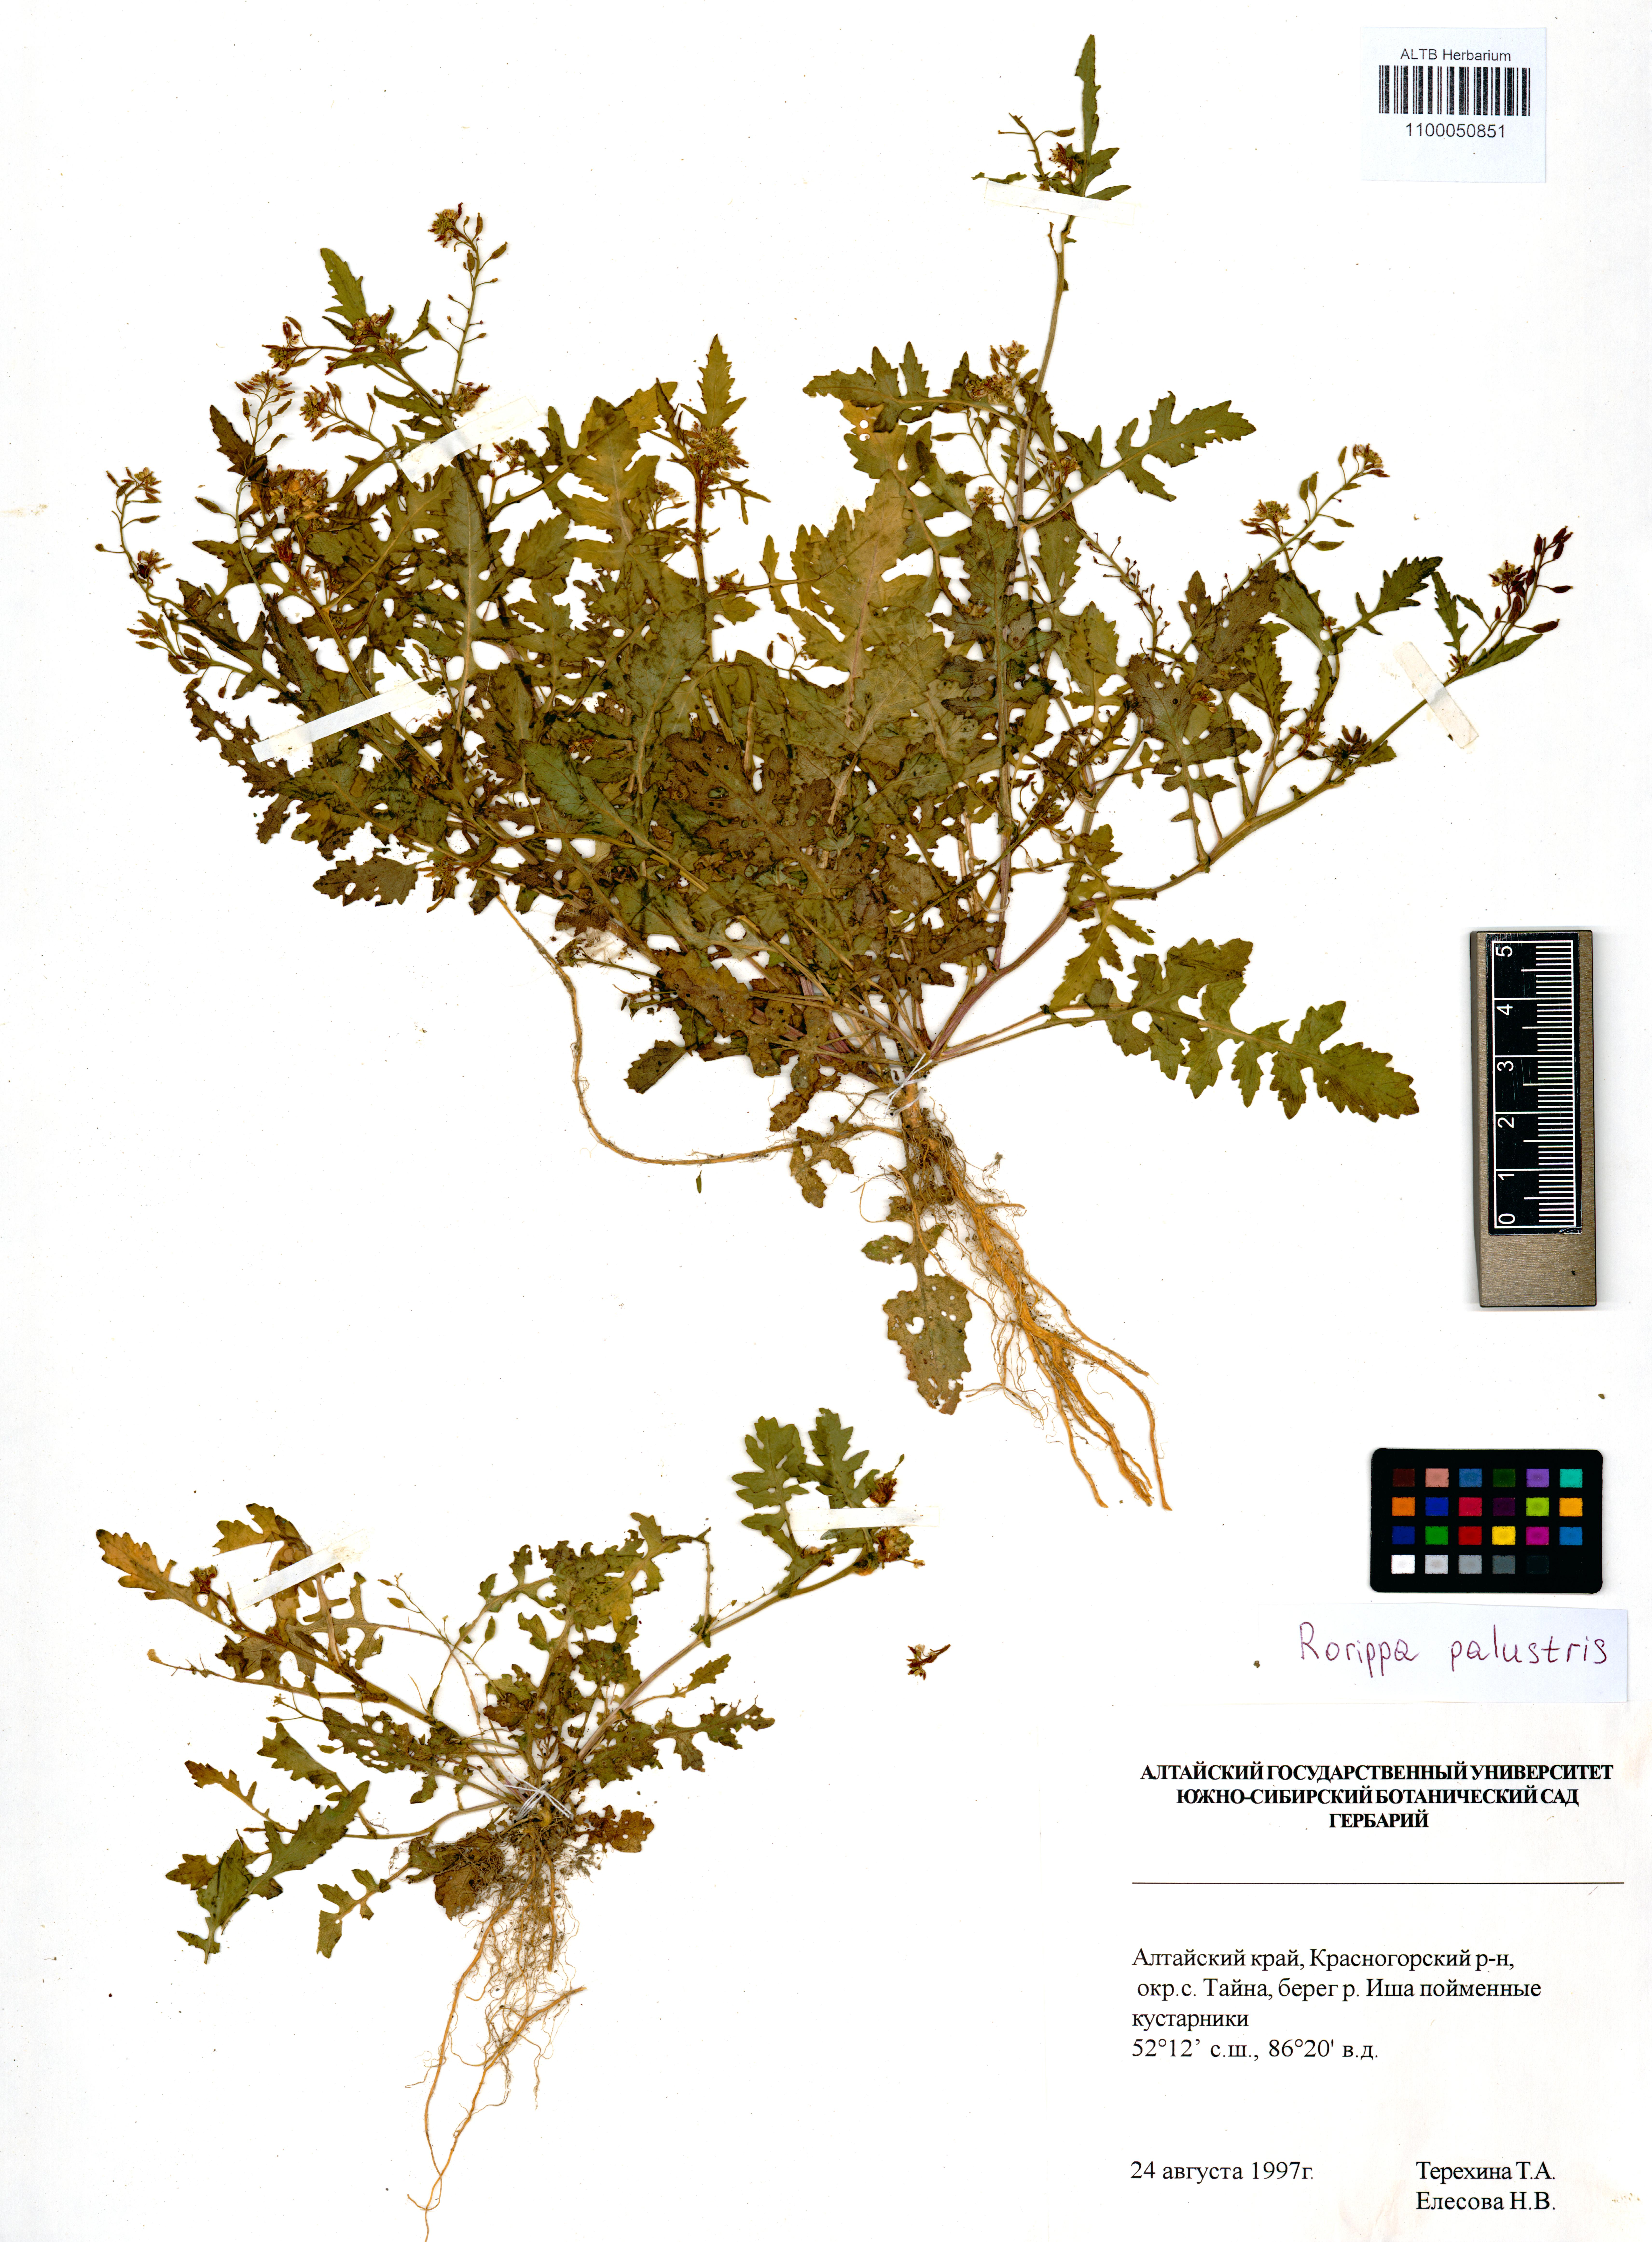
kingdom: Plantae
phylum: Tracheophyta
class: Magnoliopsida
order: Brassicales
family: Brassicaceae
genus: Rorippa
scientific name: Rorippa palustris
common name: Marsh yellow-cress
